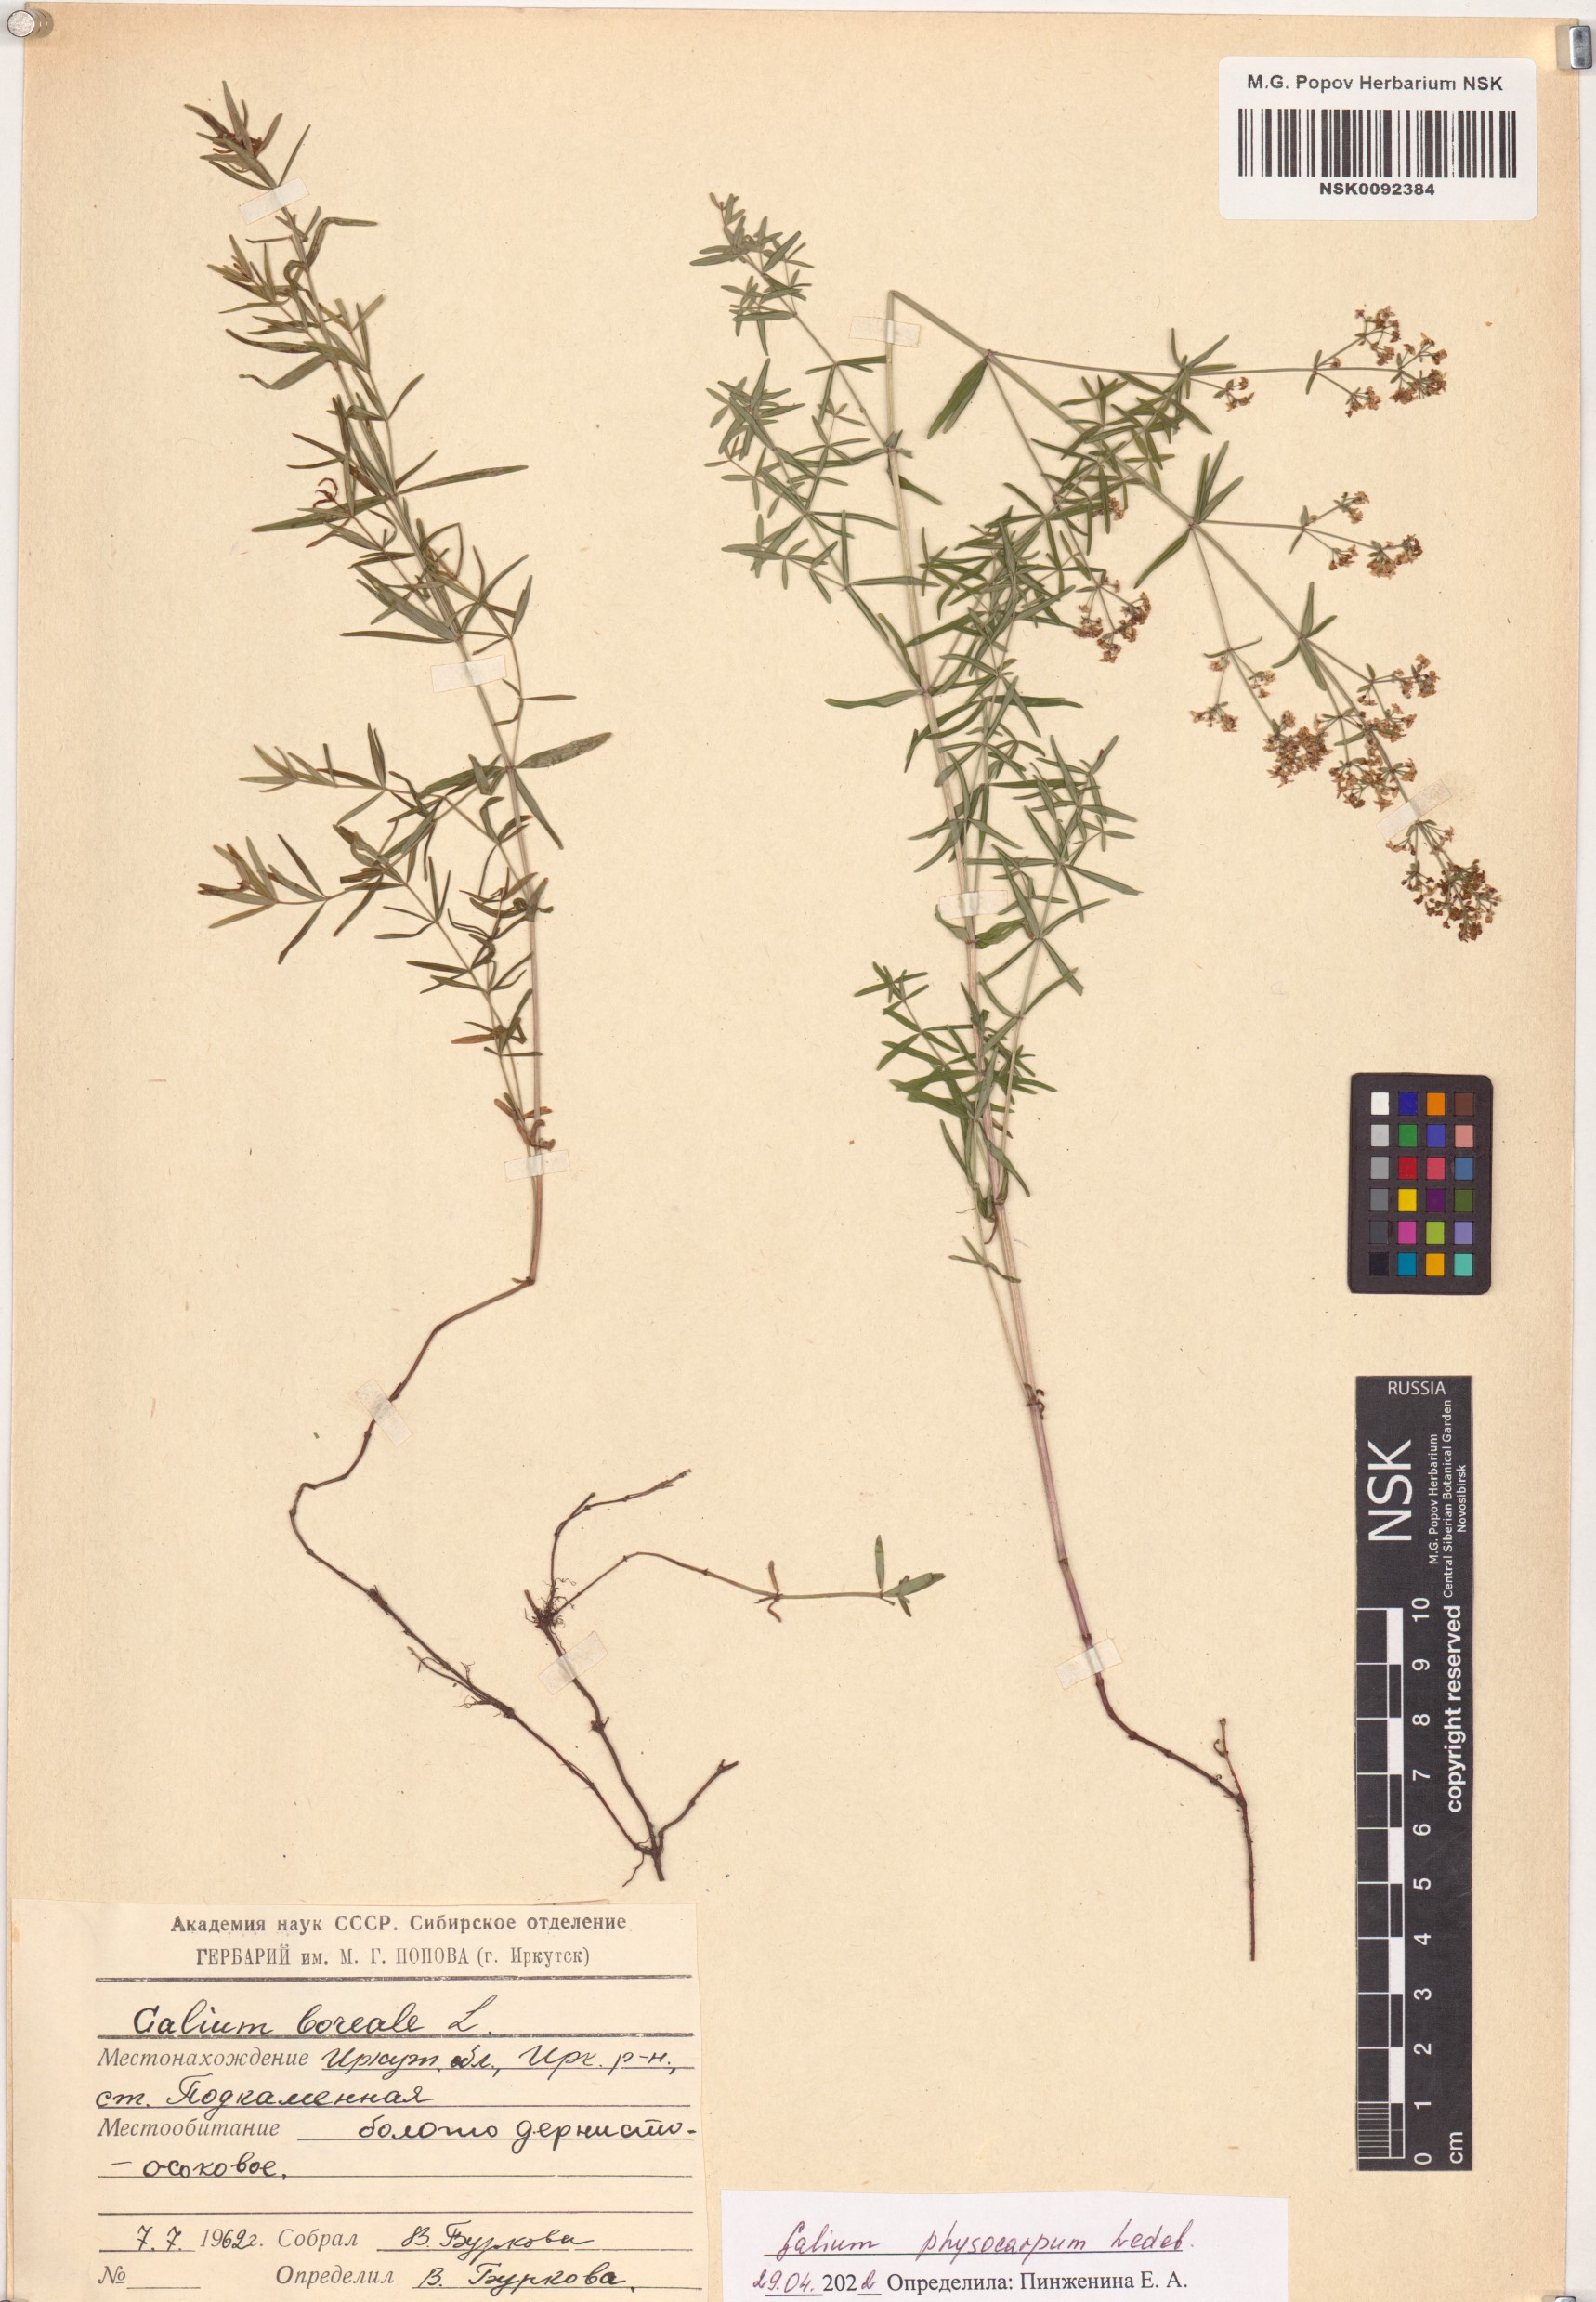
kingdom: Plantae
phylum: Tracheophyta
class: Magnoliopsida
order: Gentianales
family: Rubiaceae
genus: Galium
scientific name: Galium rubioides
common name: European bedstraw
